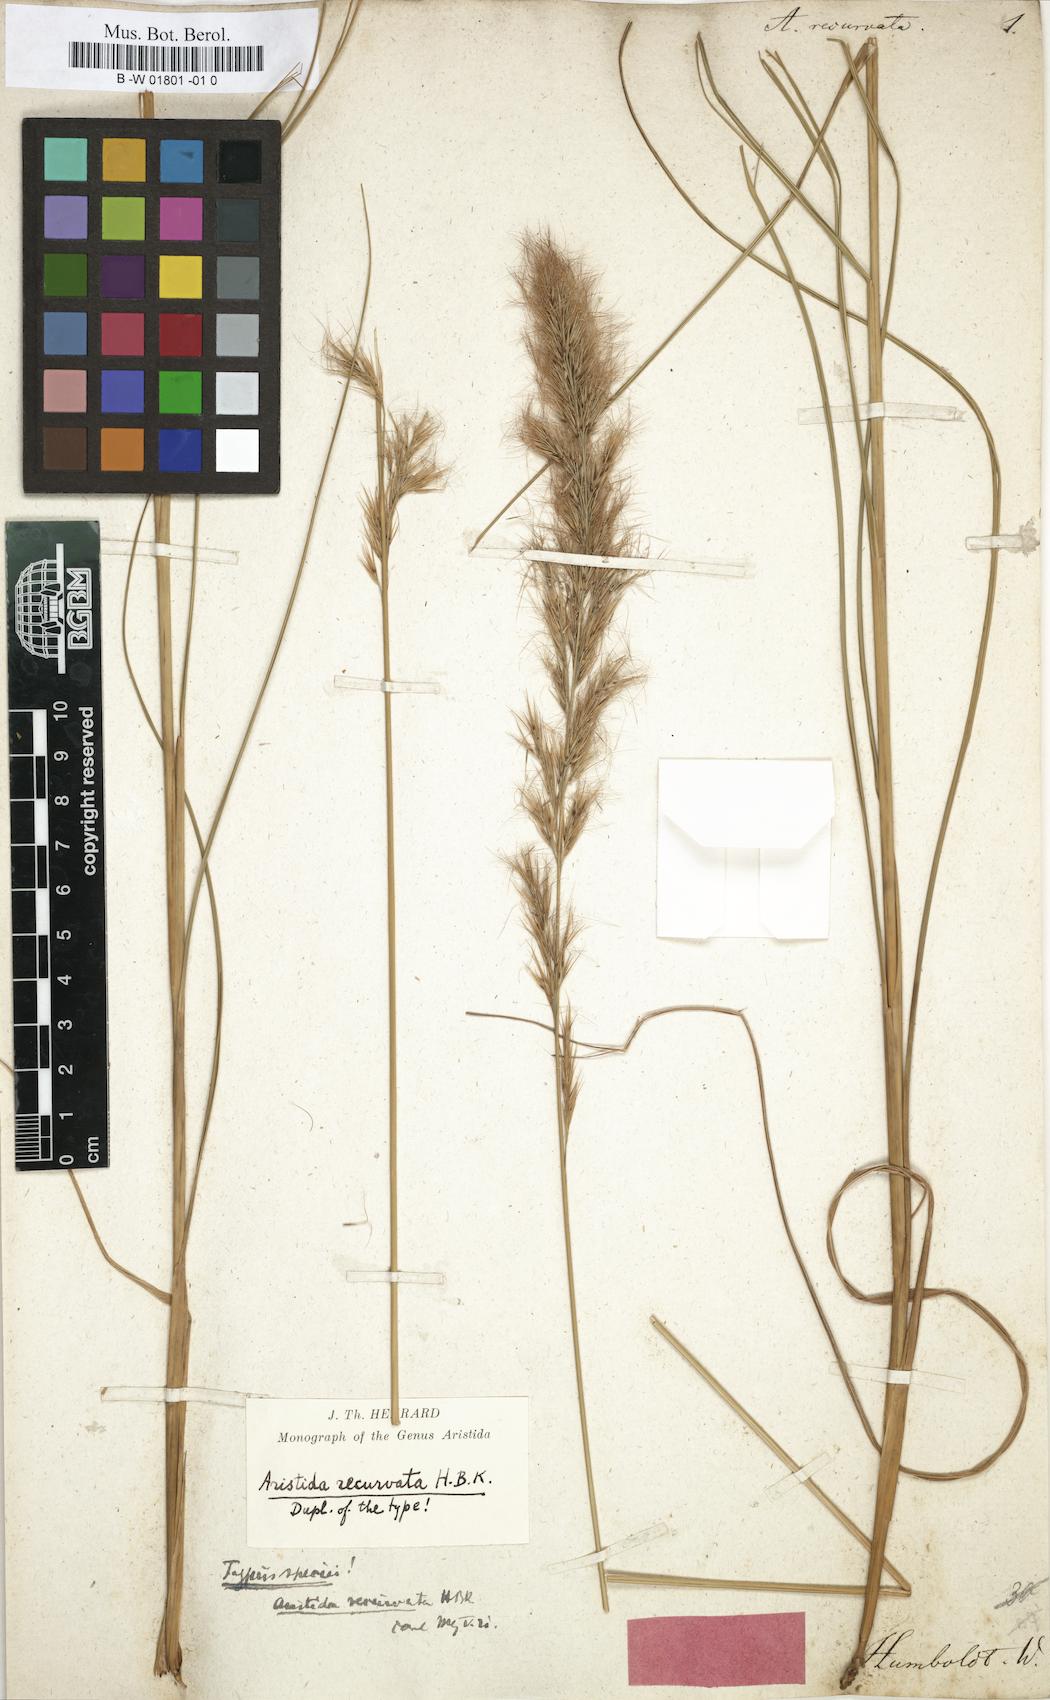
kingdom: Plantae
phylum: Tracheophyta
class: Liliopsida
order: Poales
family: Poaceae
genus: Aristida
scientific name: Aristida recurvata
